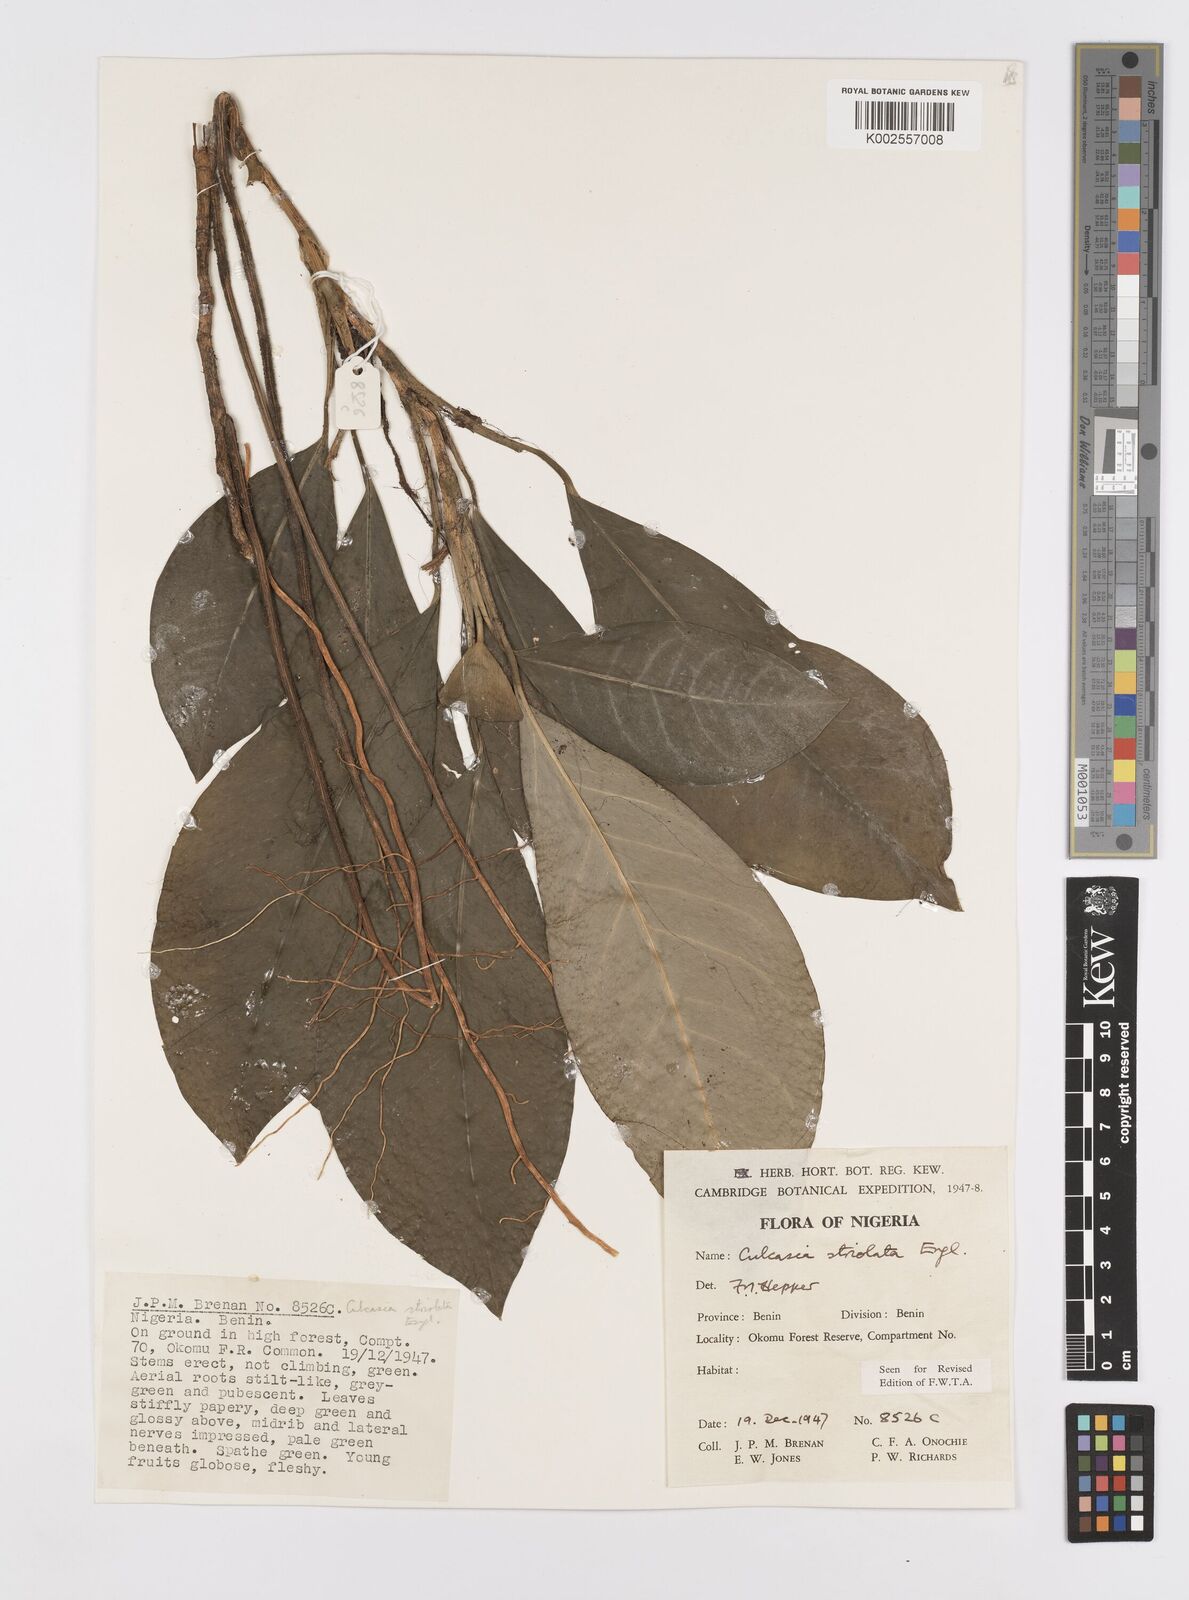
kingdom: Plantae
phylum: Tracheophyta
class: Liliopsida
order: Alismatales
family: Araceae
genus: Culcasia
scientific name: Culcasia striolata
